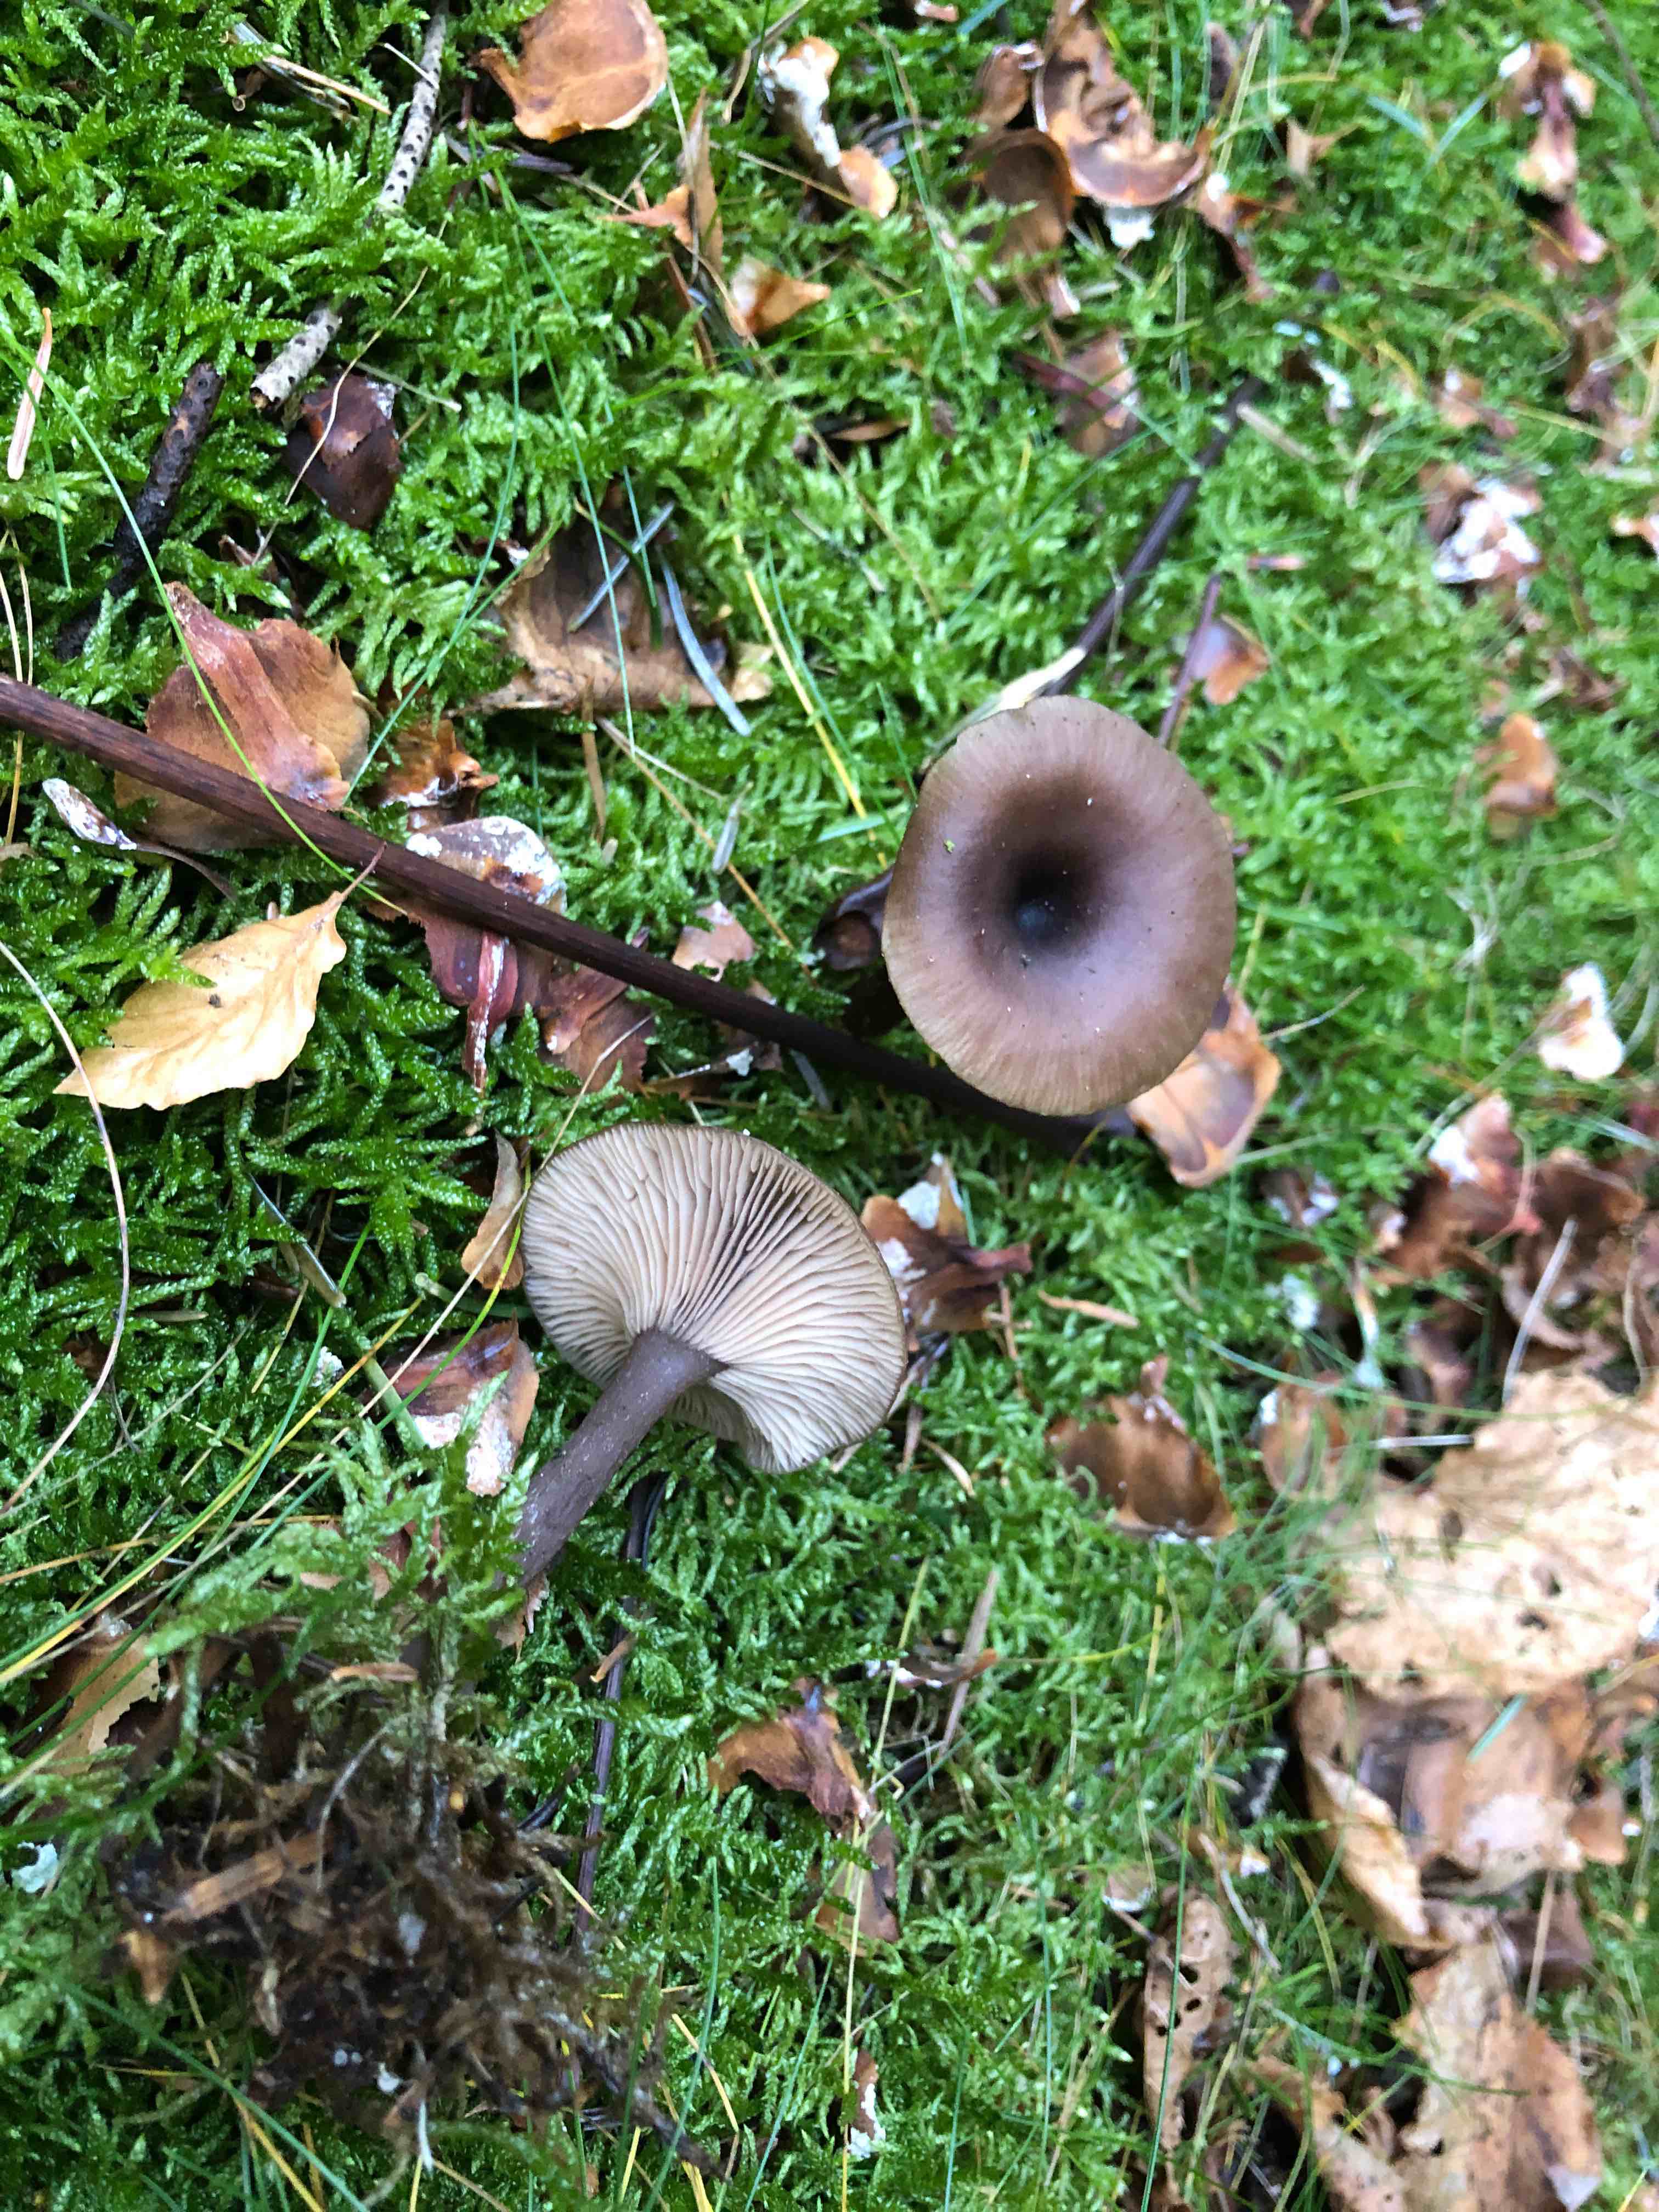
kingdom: Fungi
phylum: Basidiomycota
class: Agaricomycetes
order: Agaricales
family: Pseudoclitocybaceae
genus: Pseudoclitocybe
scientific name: Pseudoclitocybe cyathiformis
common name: almindelig bægertragthat
